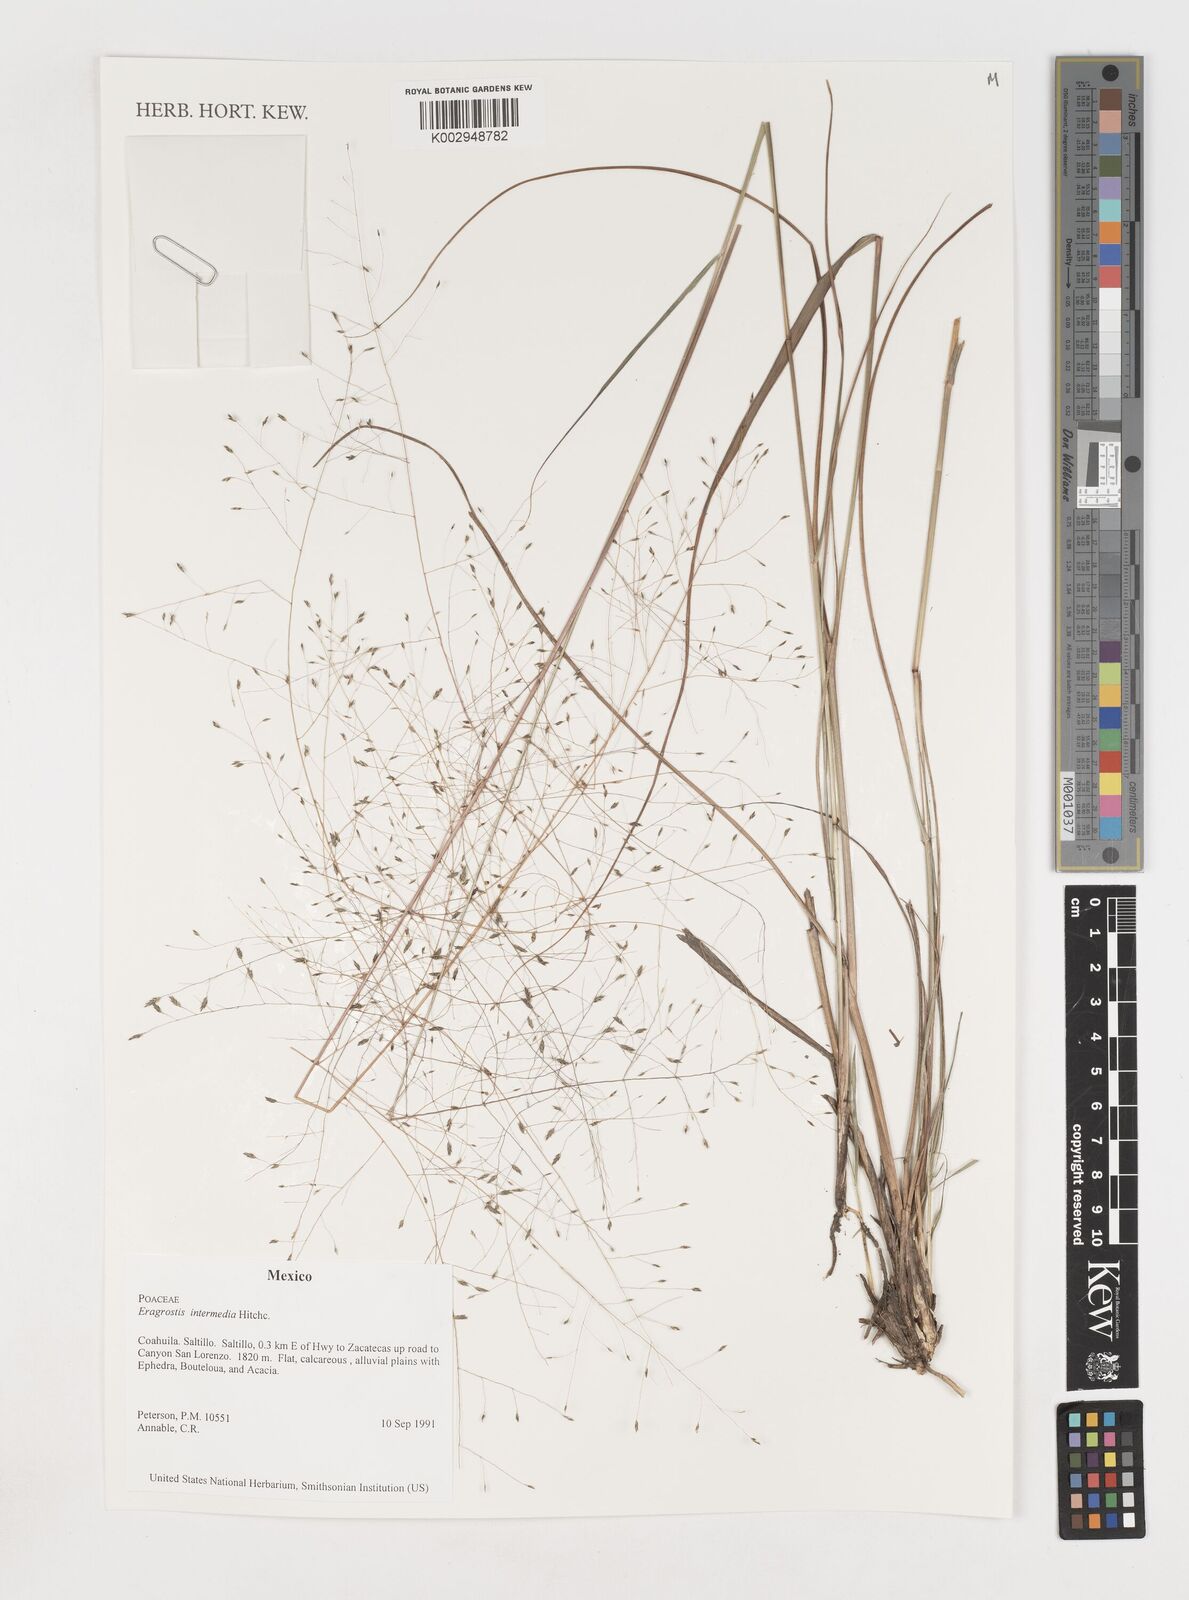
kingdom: Plantae
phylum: Tracheophyta
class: Liliopsida
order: Poales
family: Poaceae
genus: Eragrostis
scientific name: Eragrostis intermedia
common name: Plains love grass
